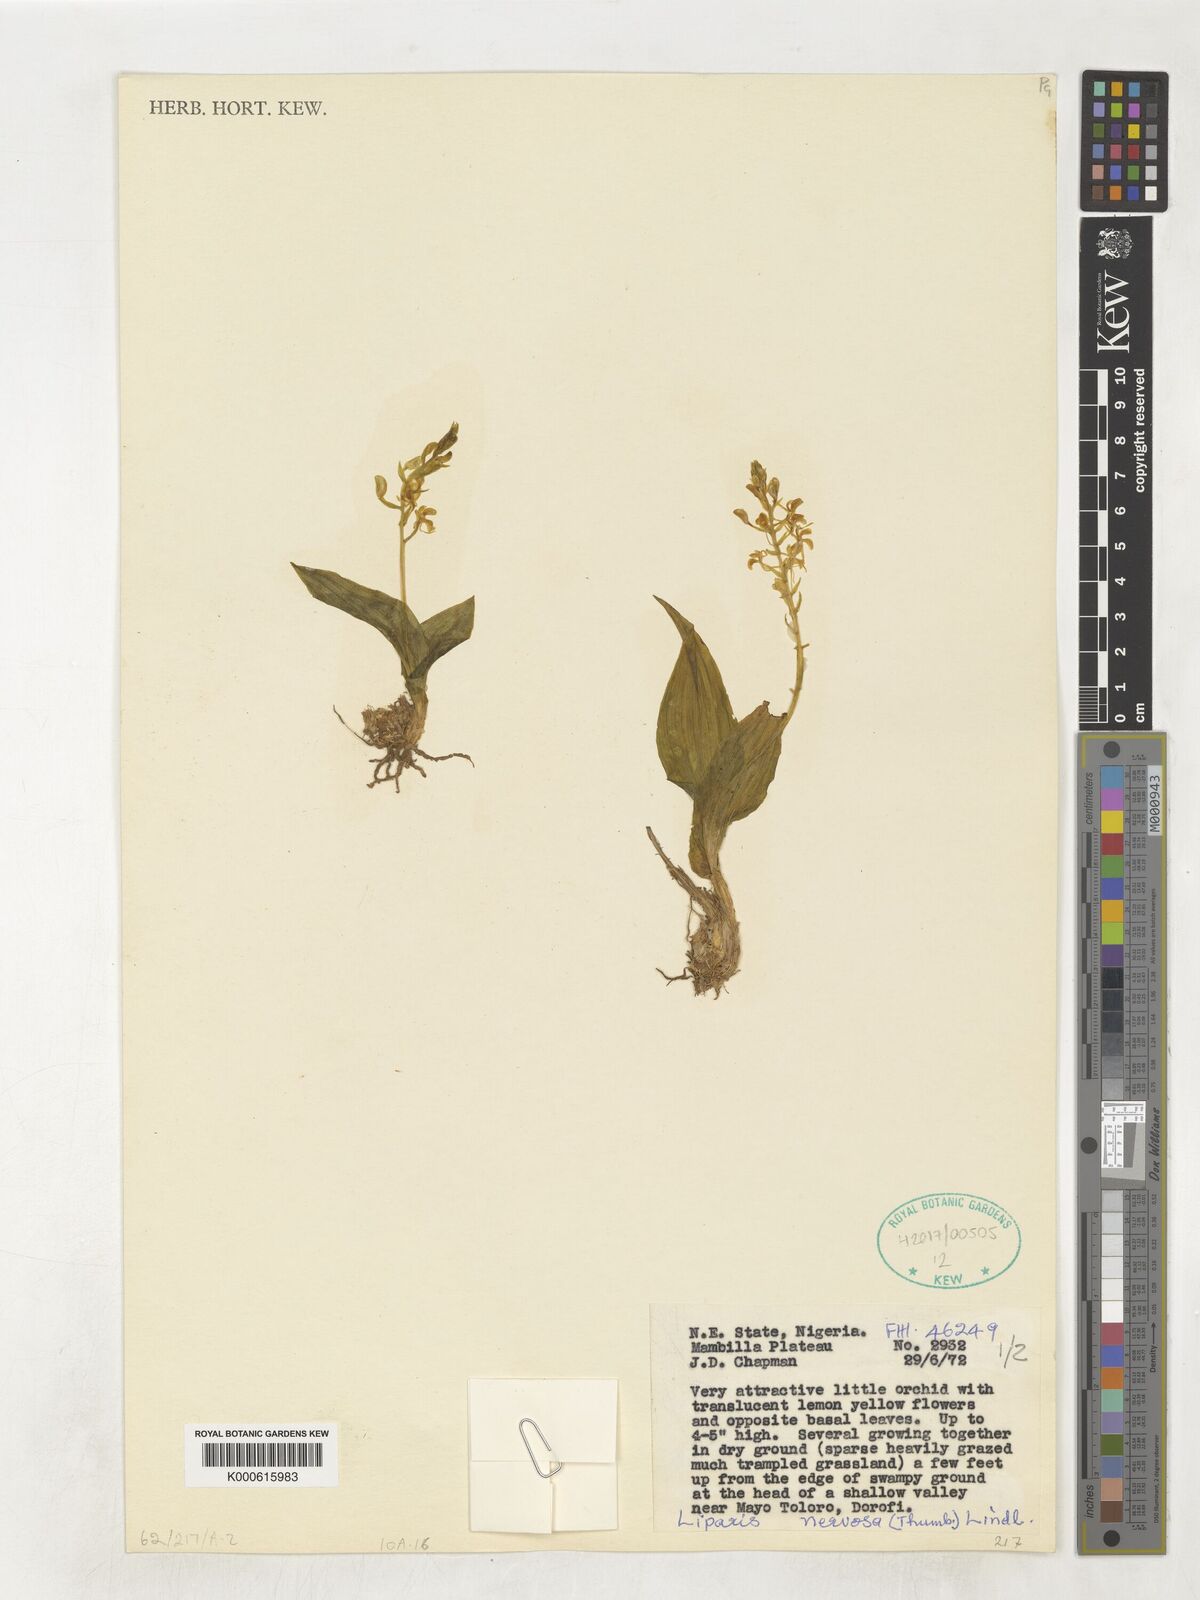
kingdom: Plantae
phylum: Tracheophyta
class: Liliopsida
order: Asparagales
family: Orchidaceae
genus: Liparis
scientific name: Liparis nervosa
